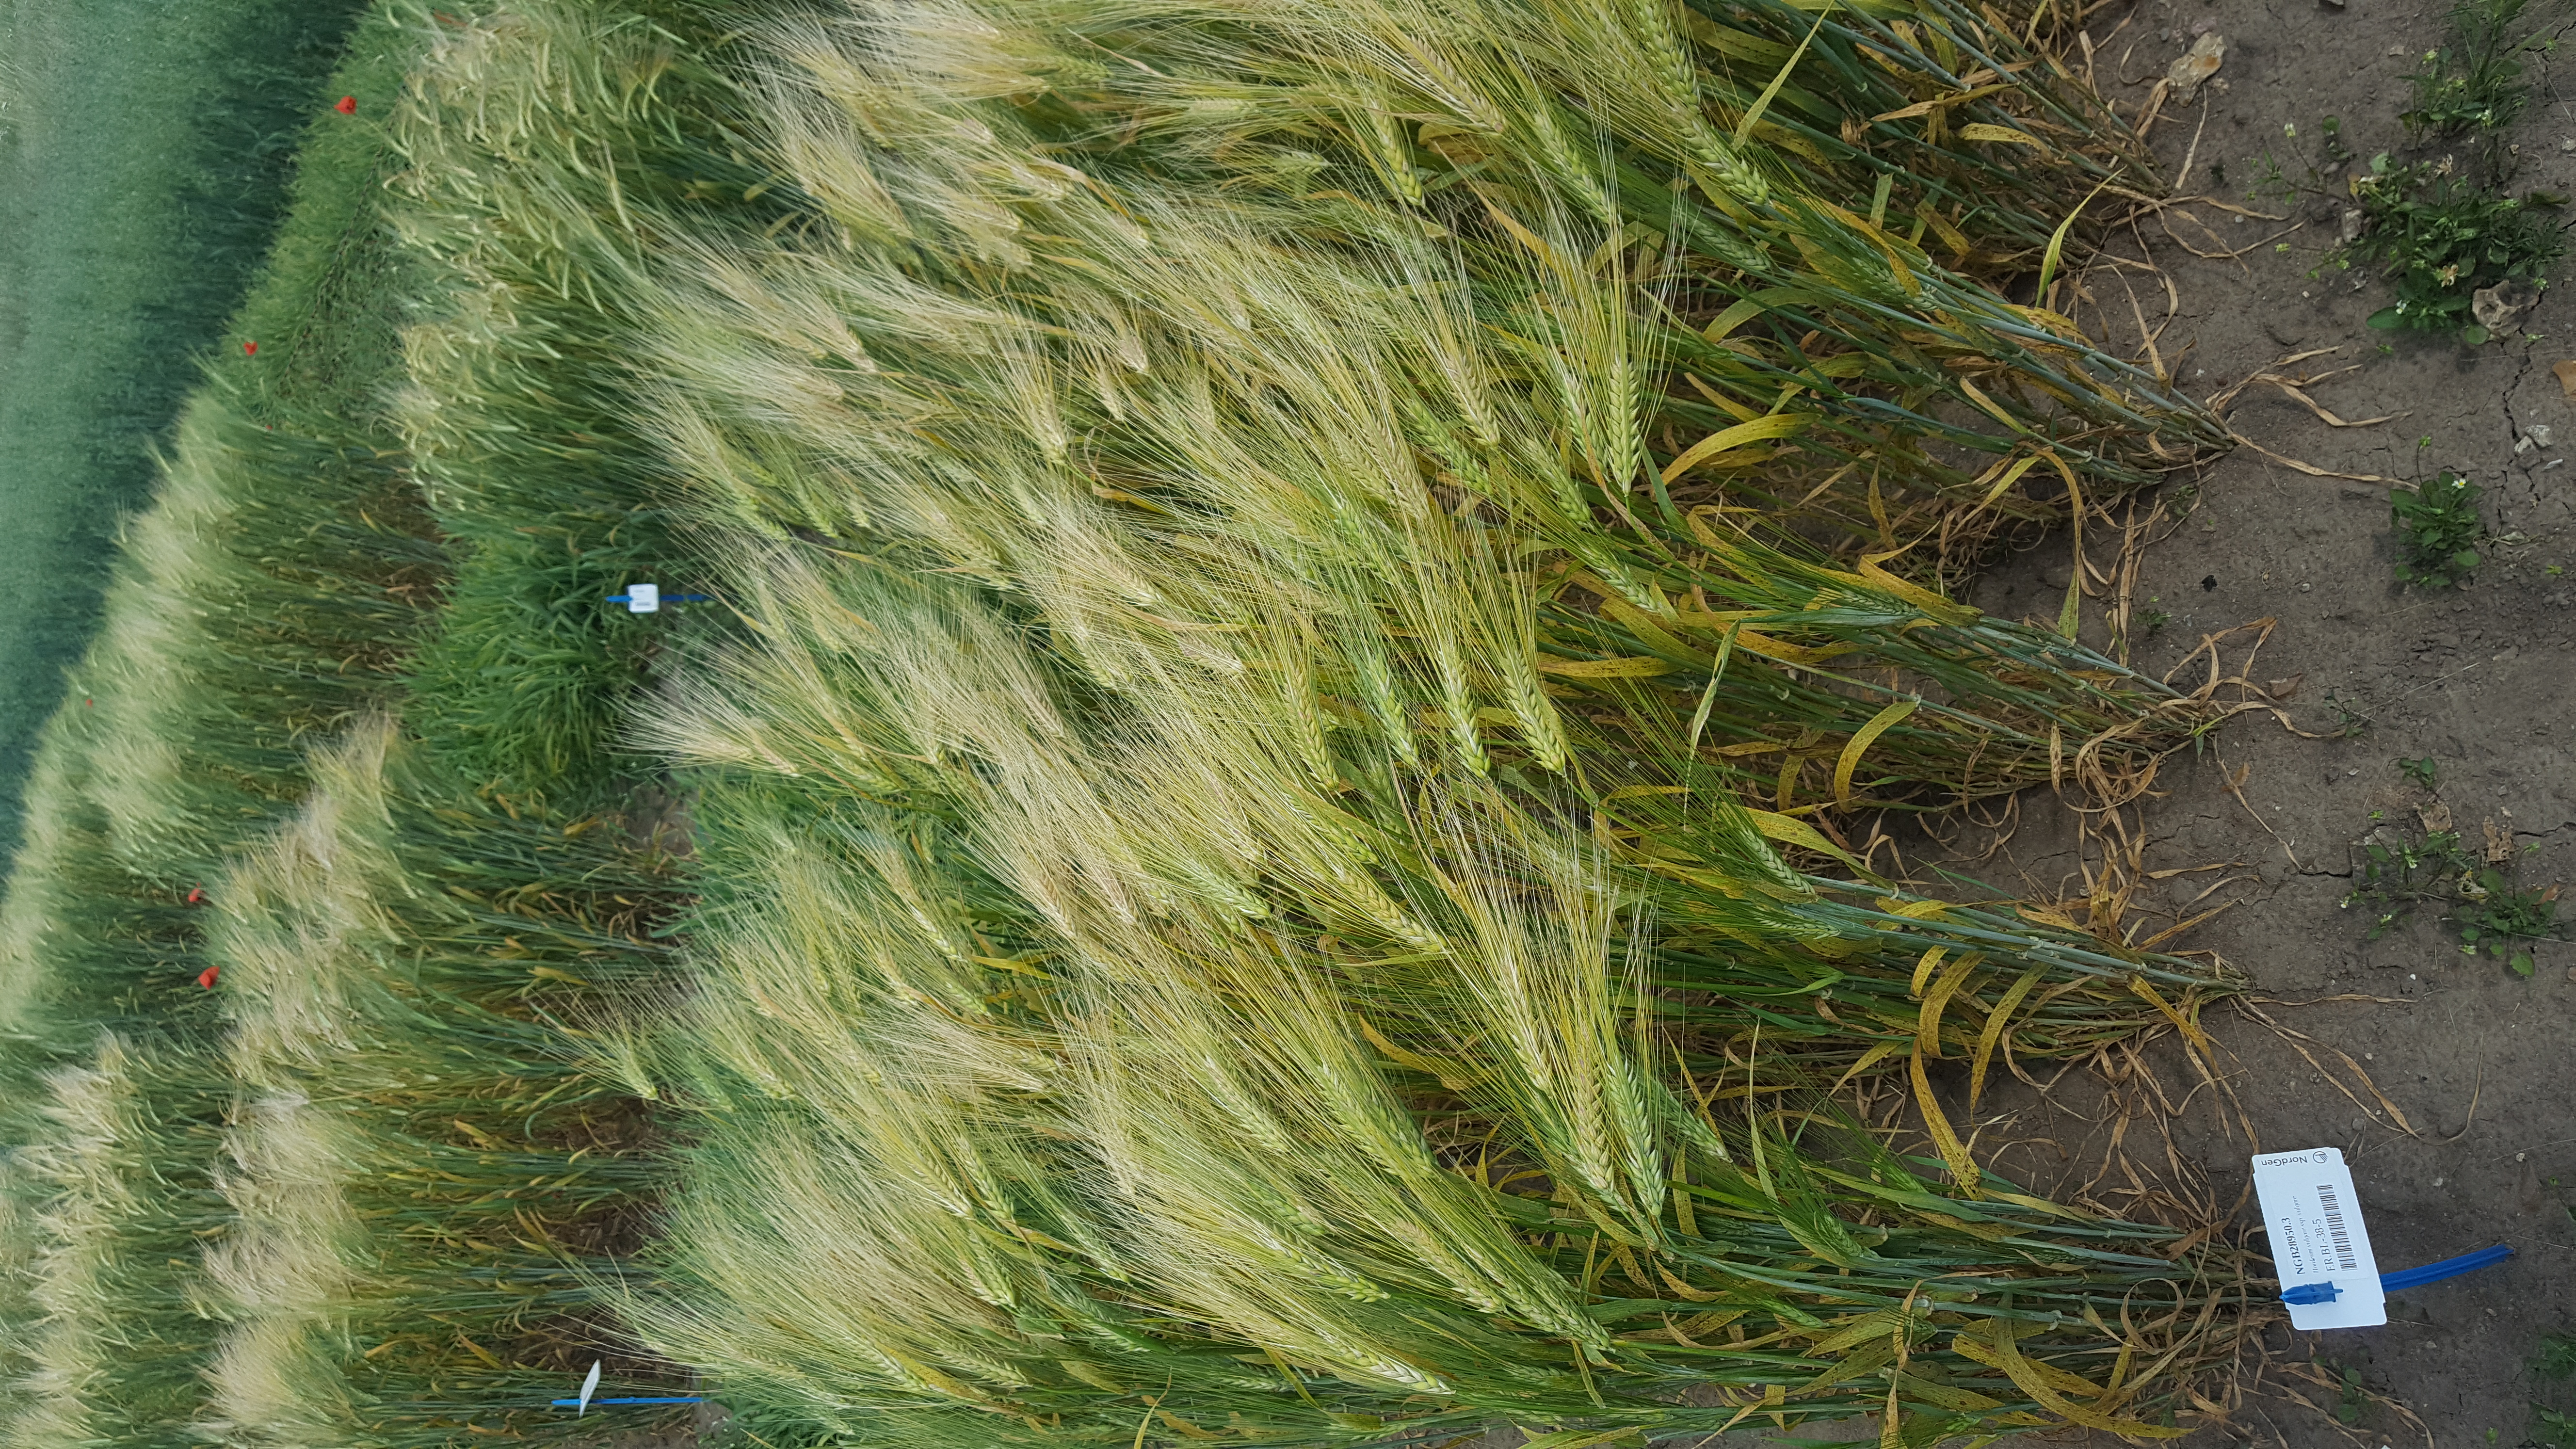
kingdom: Plantae
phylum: Tracheophyta
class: Liliopsida
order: Poales
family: Poaceae
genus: Hordeum
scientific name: Hordeum vulgare
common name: Common barley
